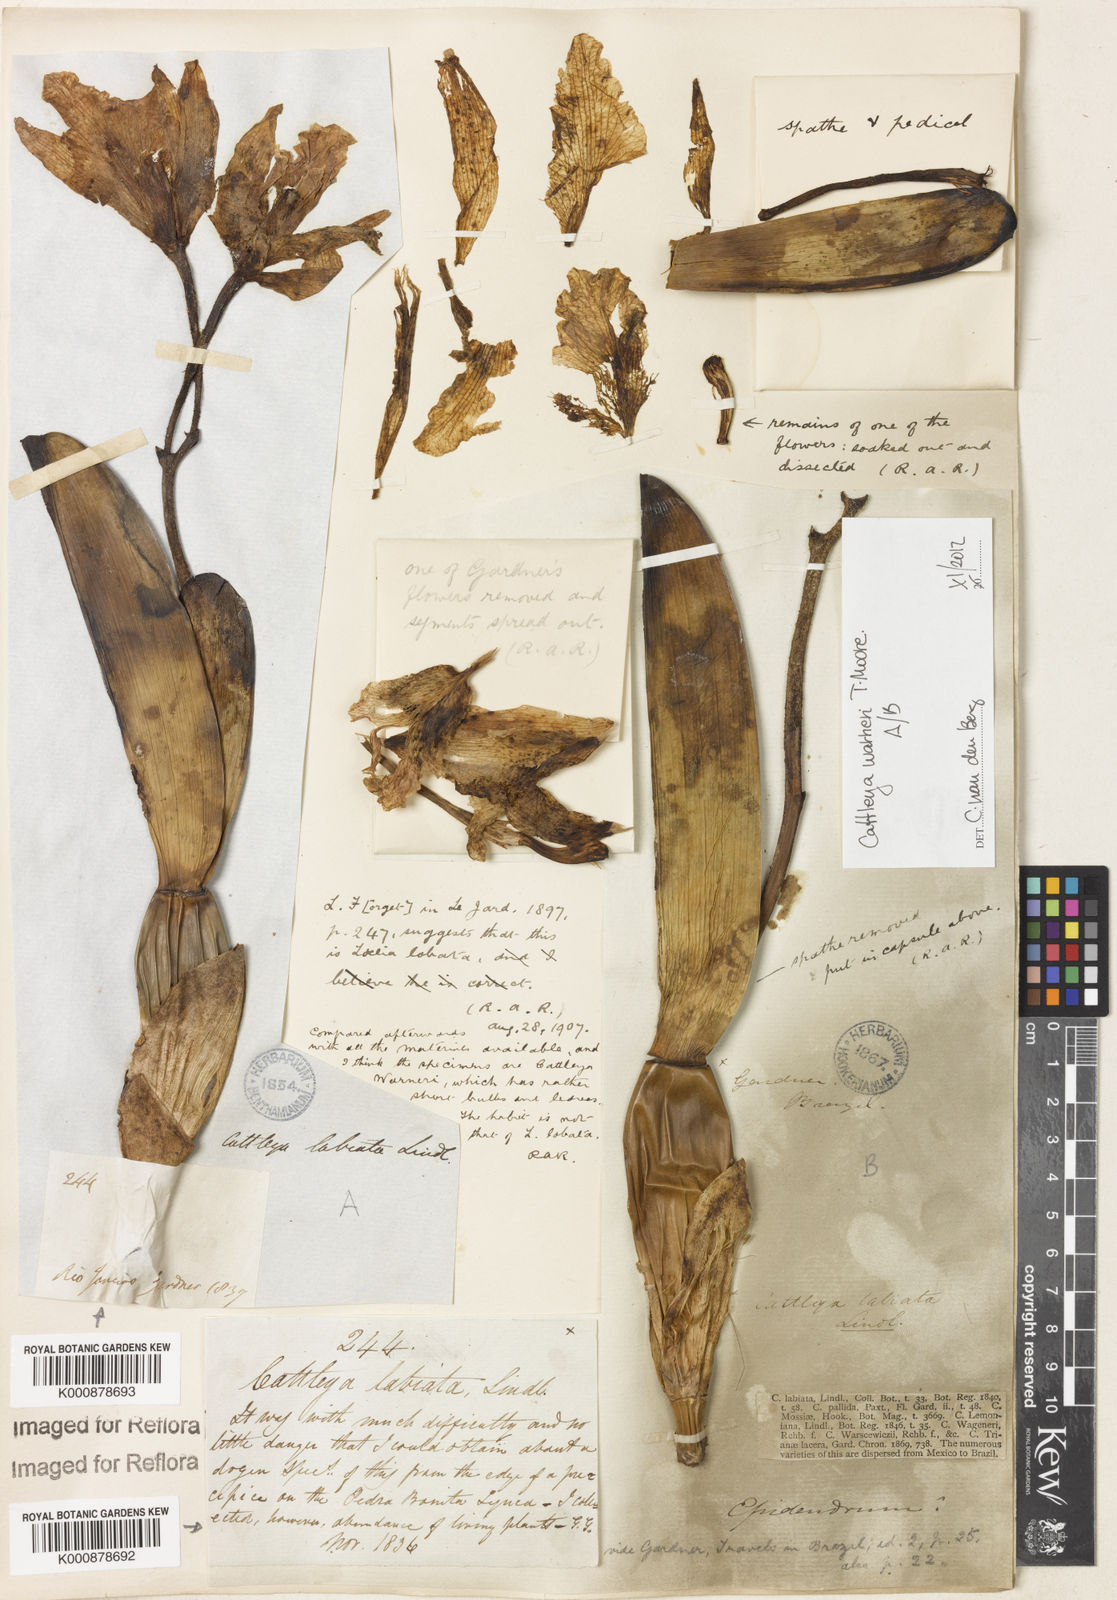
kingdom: Plantae
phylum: Tracheophyta
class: Liliopsida
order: Asparagales
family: Orchidaceae
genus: Cattleya
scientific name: Cattleya
